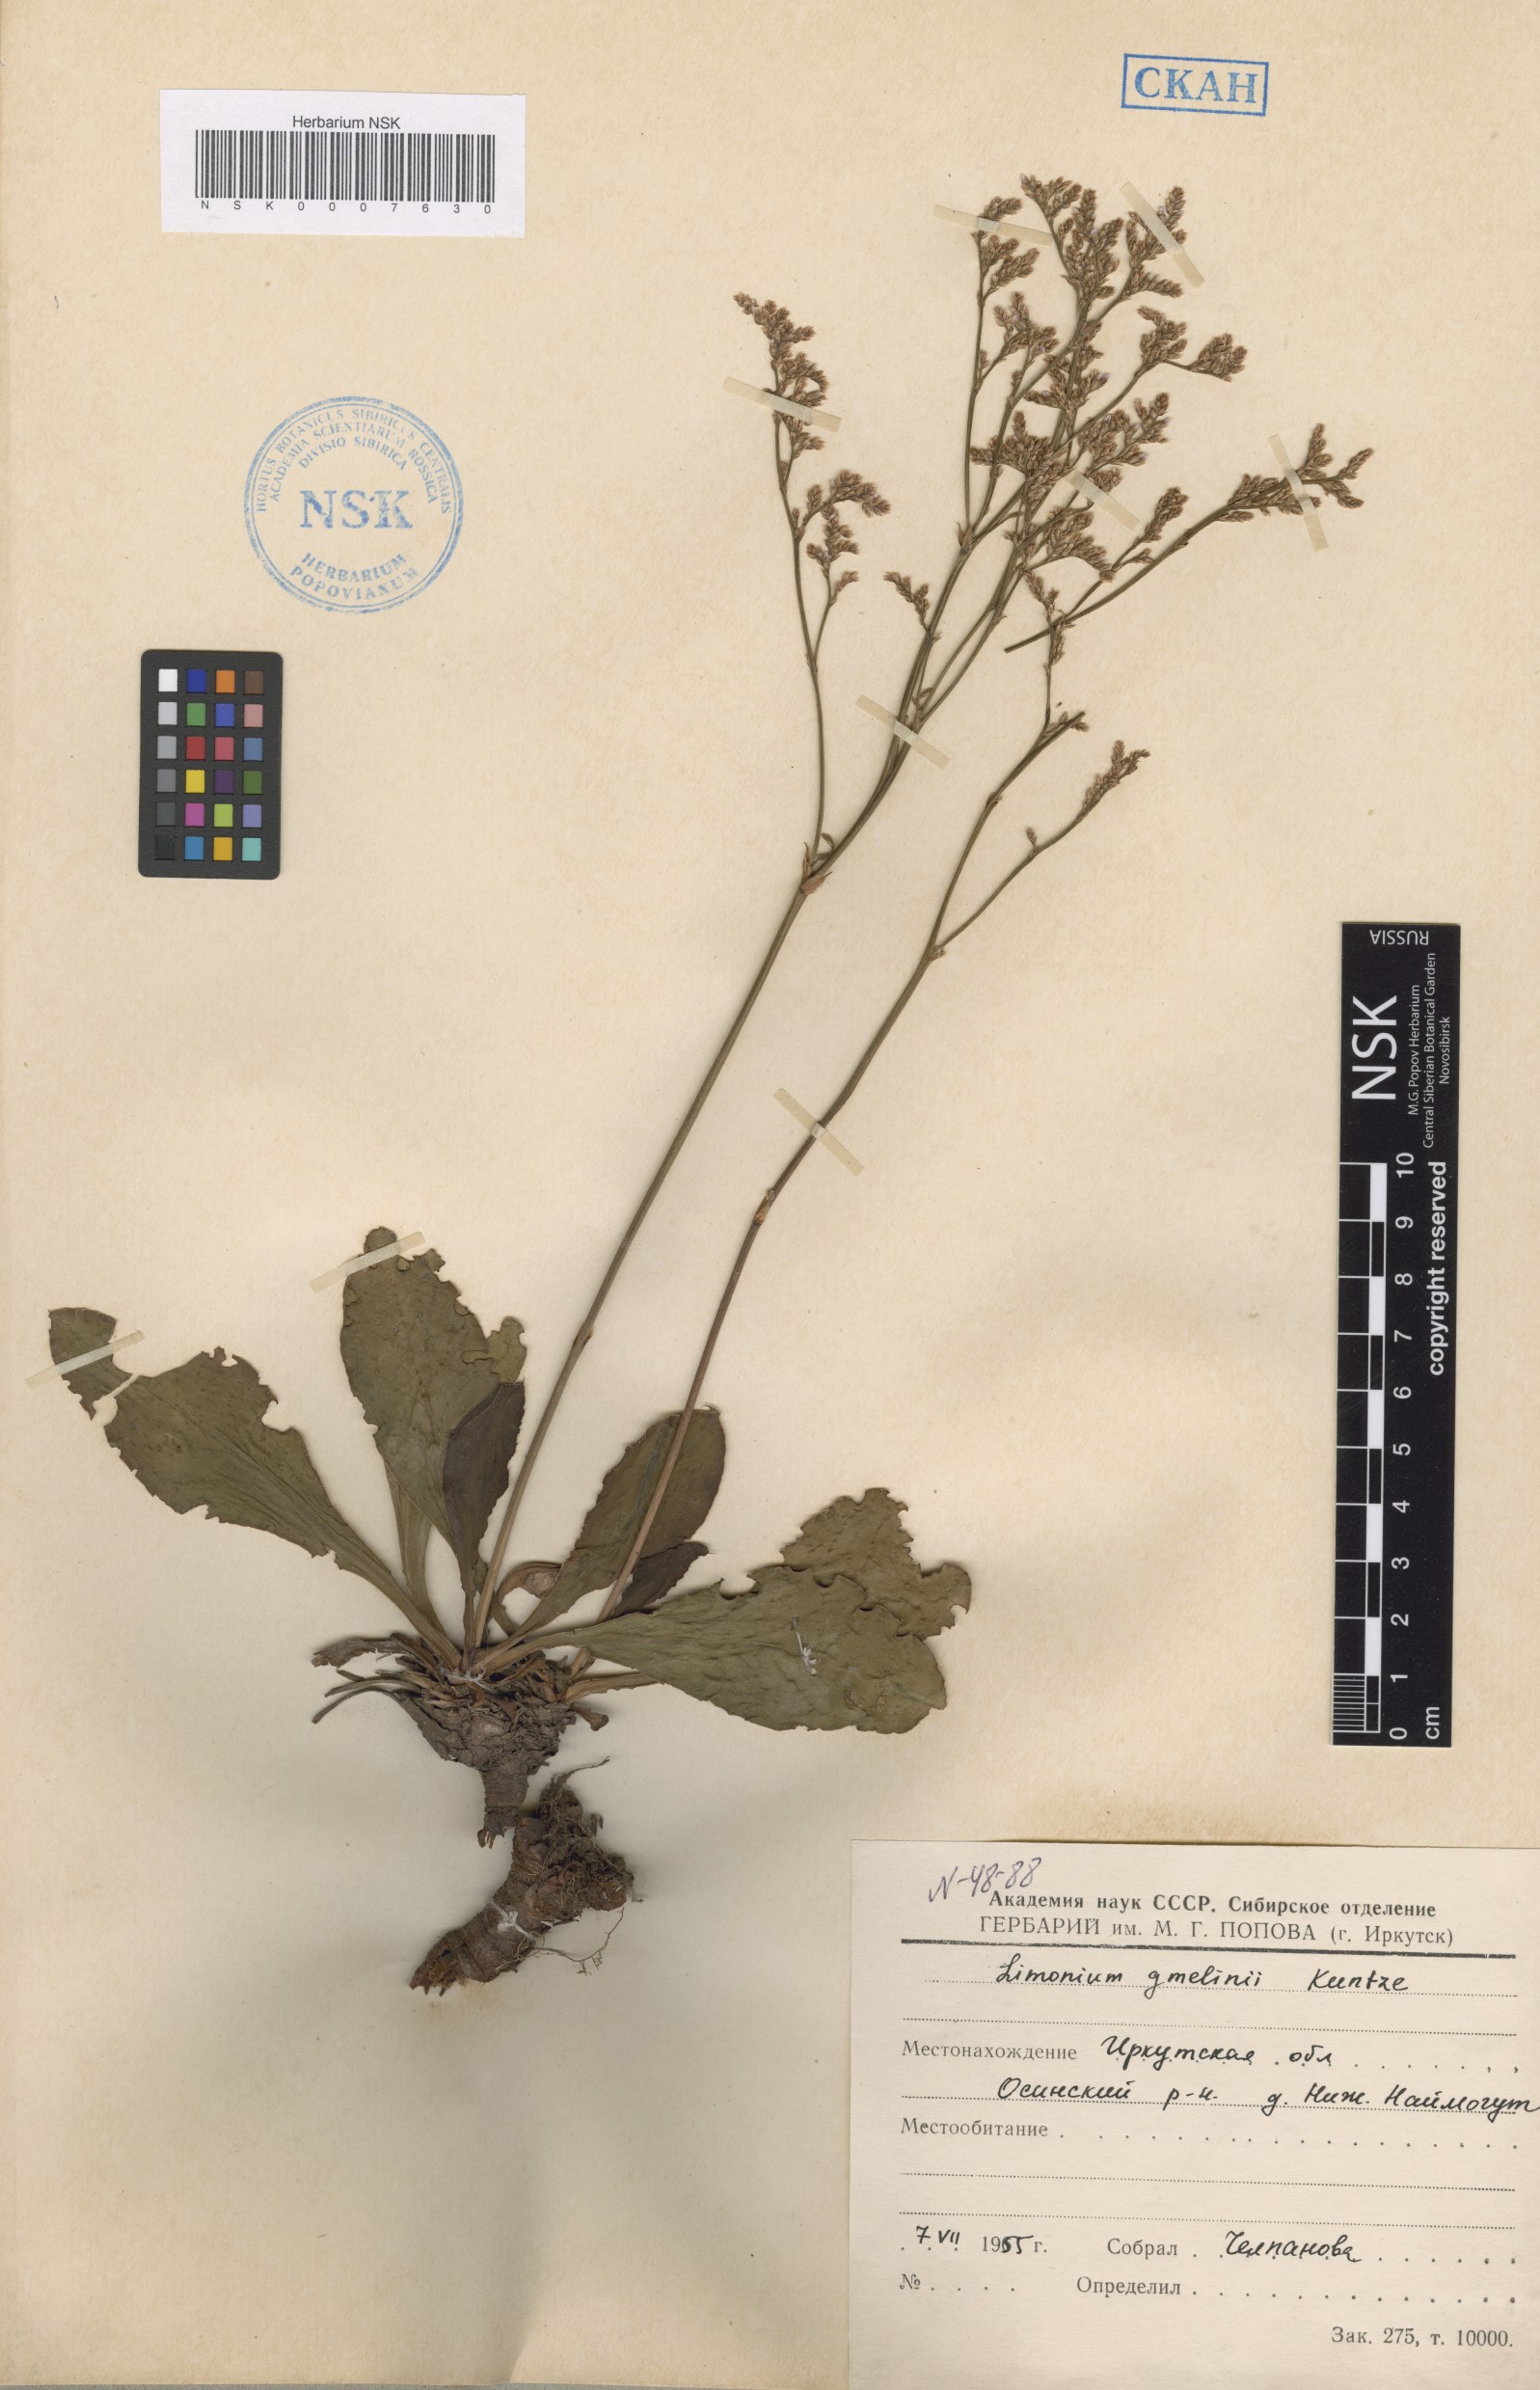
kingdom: Plantae
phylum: Tracheophyta
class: Magnoliopsida
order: Caryophyllales
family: Plumbaginaceae
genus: Limonium
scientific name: Limonium gmelini
